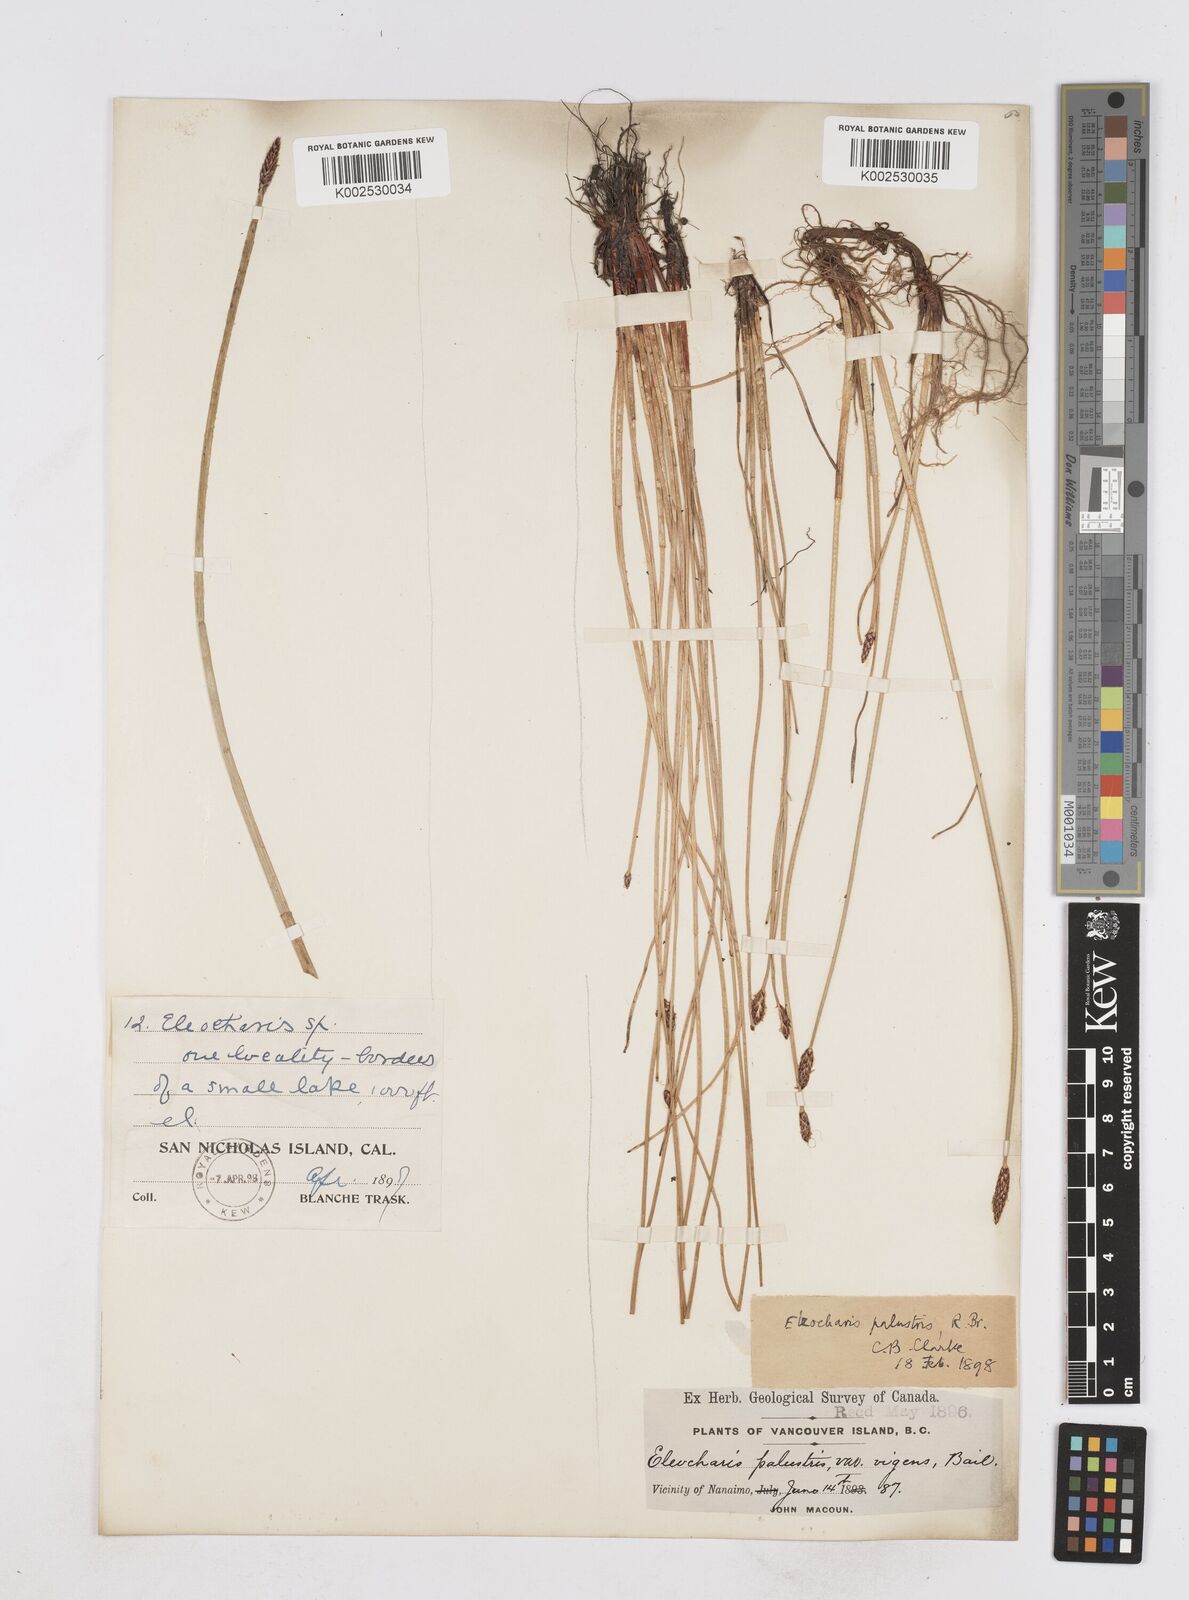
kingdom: Plantae
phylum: Tracheophyta
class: Liliopsida
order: Poales
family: Cyperaceae
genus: Eleocharis
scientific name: Eleocharis palustris
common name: Common spike-rush
